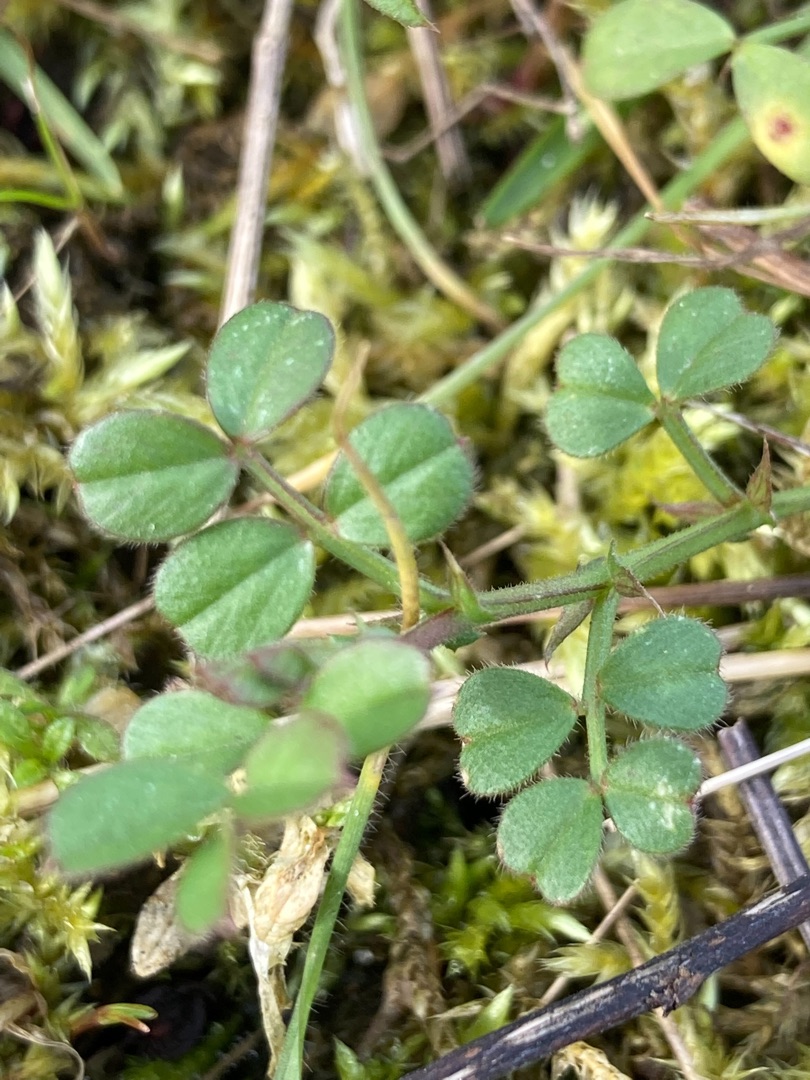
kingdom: Plantae
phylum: Tracheophyta
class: Magnoliopsida
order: Fabales
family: Fabaceae
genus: Vicia
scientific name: Vicia lathyroides
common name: Vår-vikke
